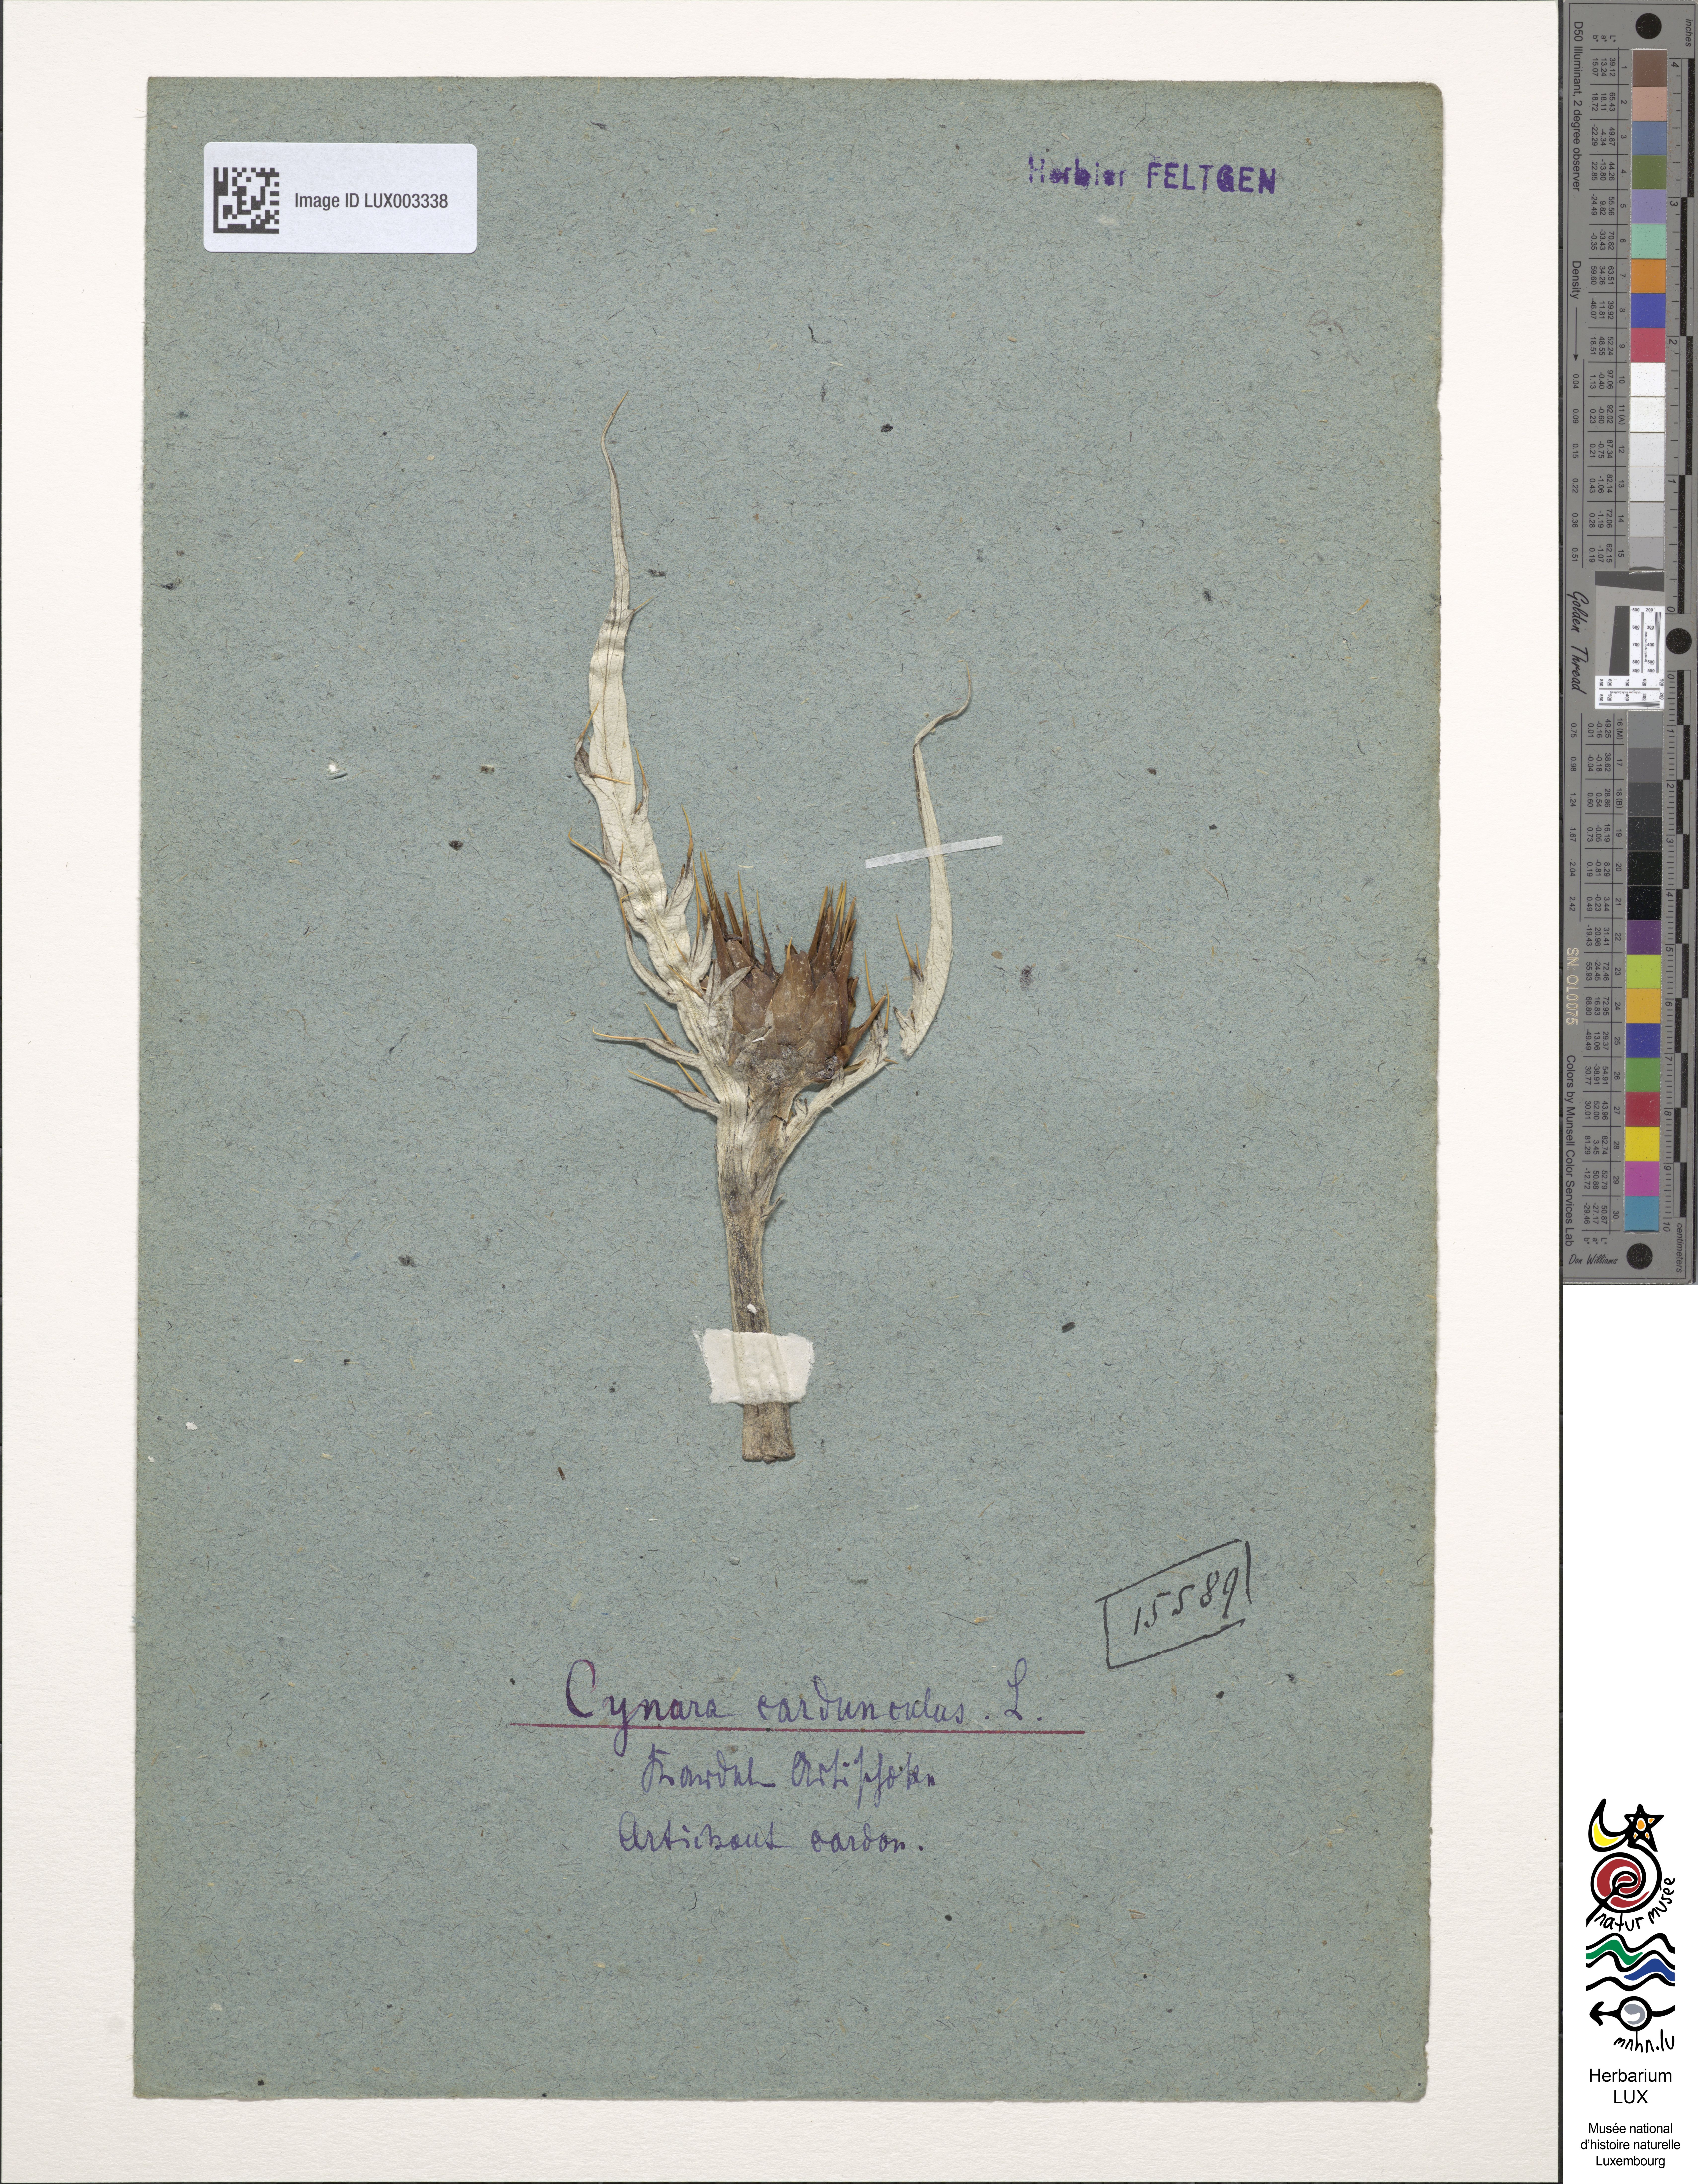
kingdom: Plantae
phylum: Tracheophyta
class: Magnoliopsida
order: Asterales
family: Asteraceae
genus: Cynara
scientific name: Cynara cardunculus
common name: Globe artichoke
